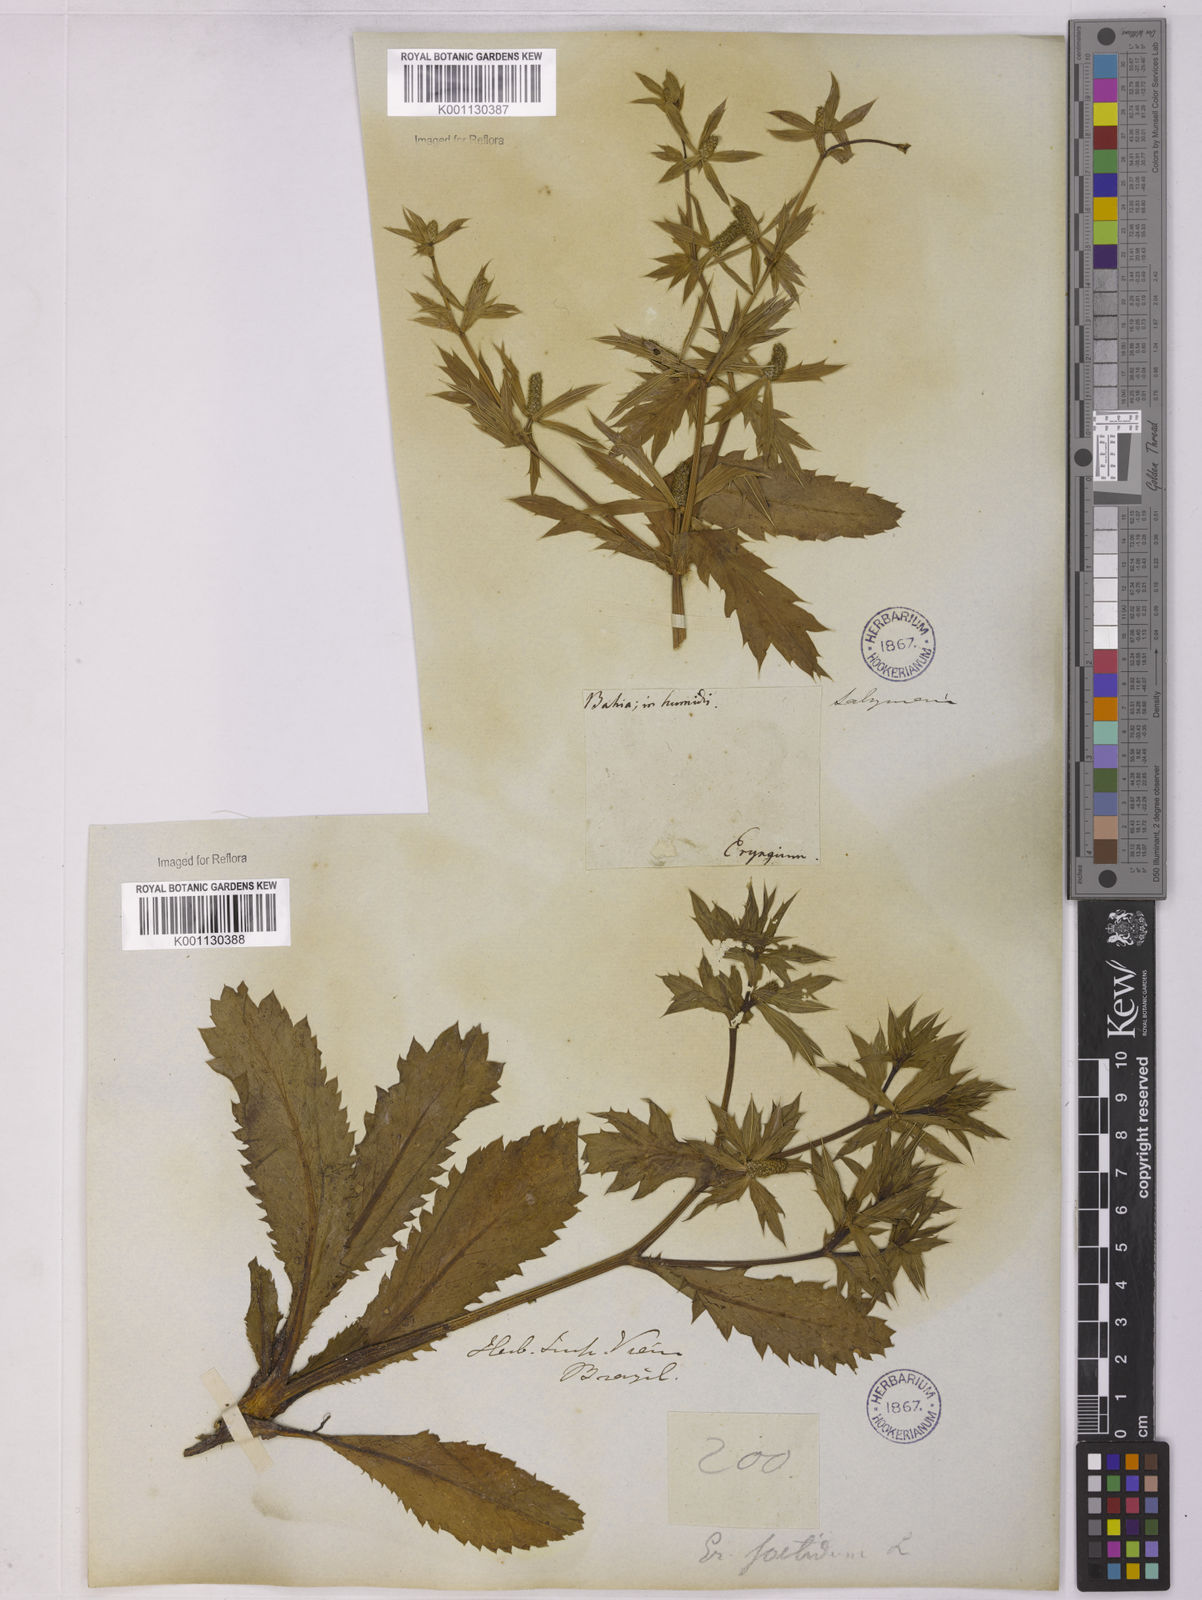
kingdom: Plantae
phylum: Tracheophyta
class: Magnoliopsida
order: Apiales
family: Apiaceae
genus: Eryngium
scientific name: Eryngium foetidum
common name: Fitweed
